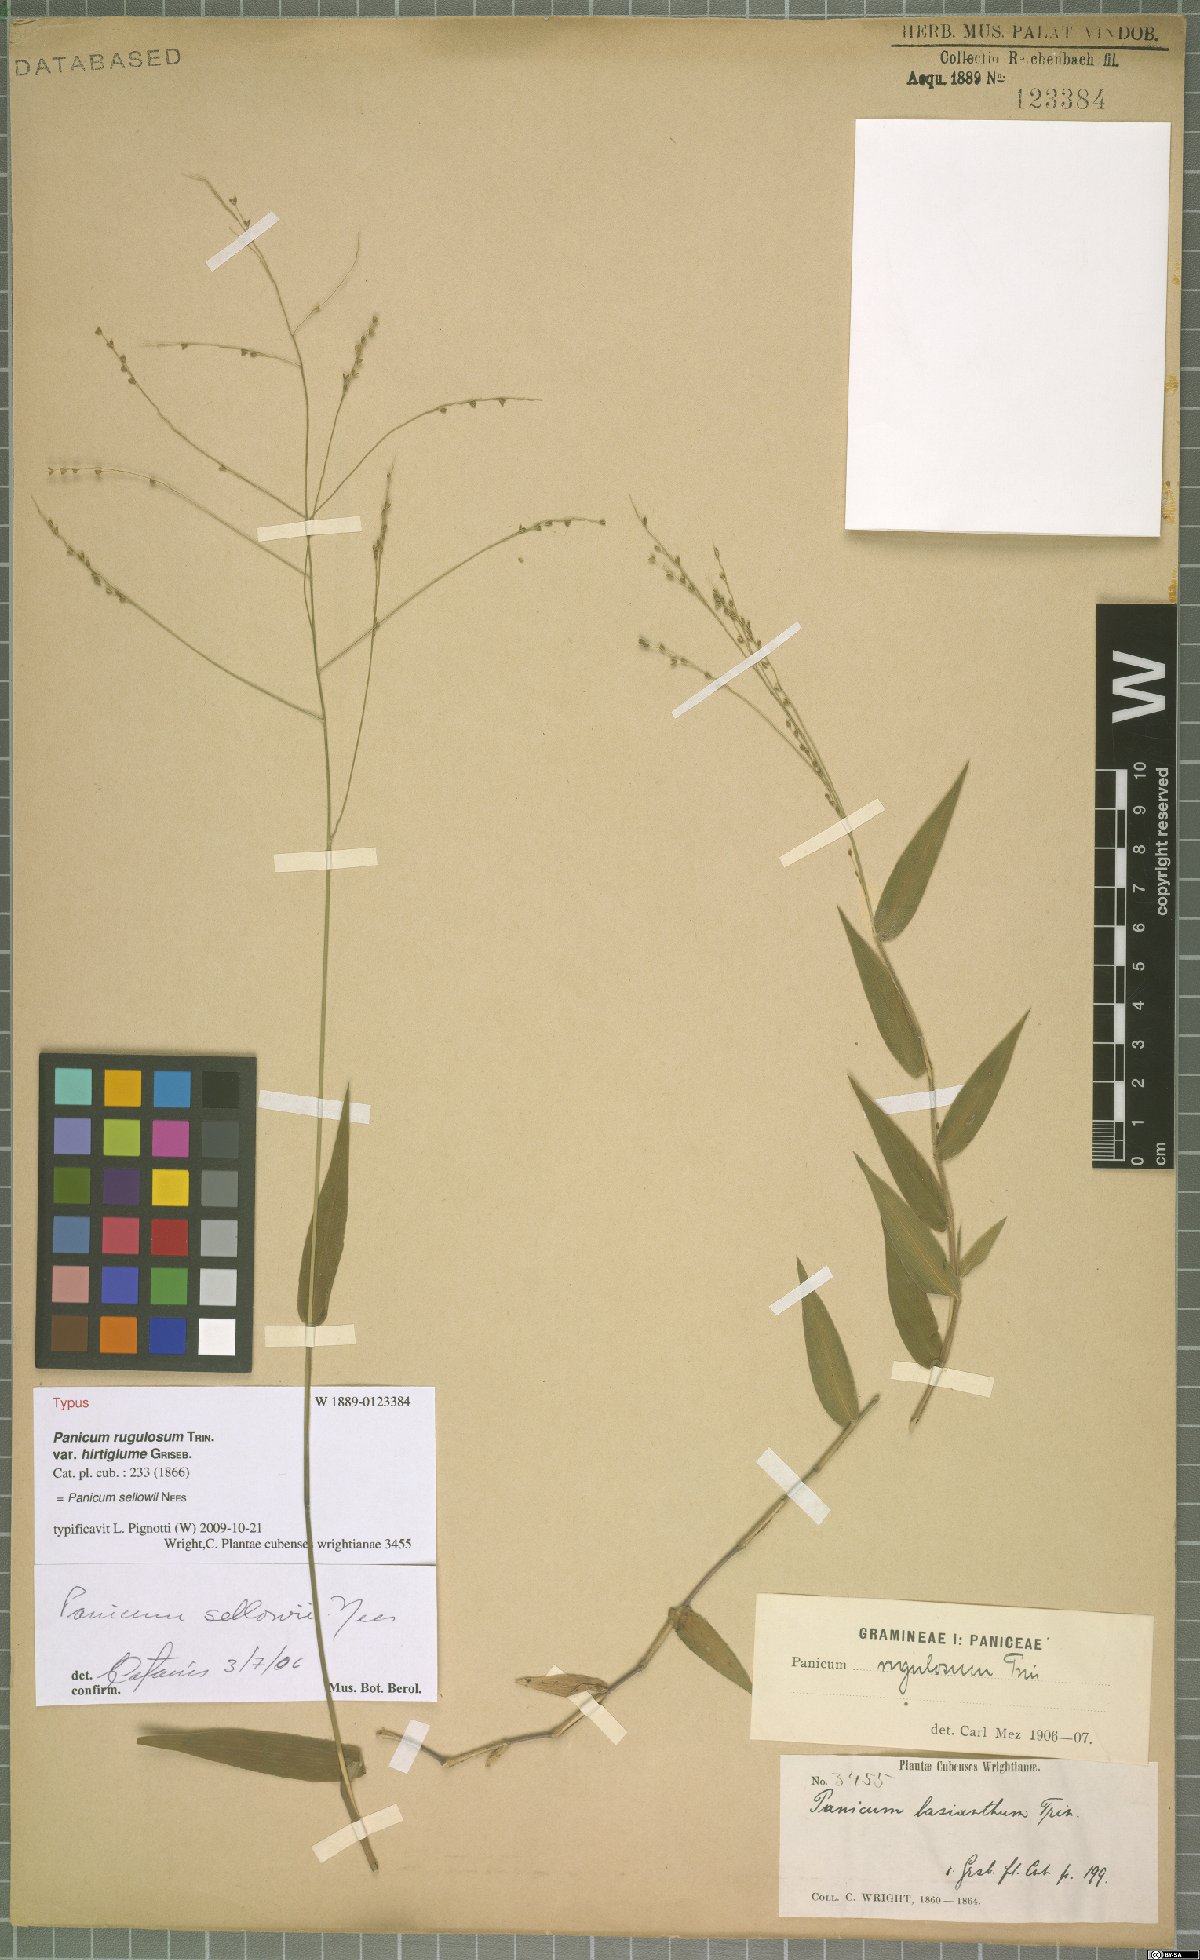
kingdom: Plantae
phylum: Tracheophyta
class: Liliopsida
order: Poales
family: Poaceae
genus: Panicum
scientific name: Panicum sellowii
